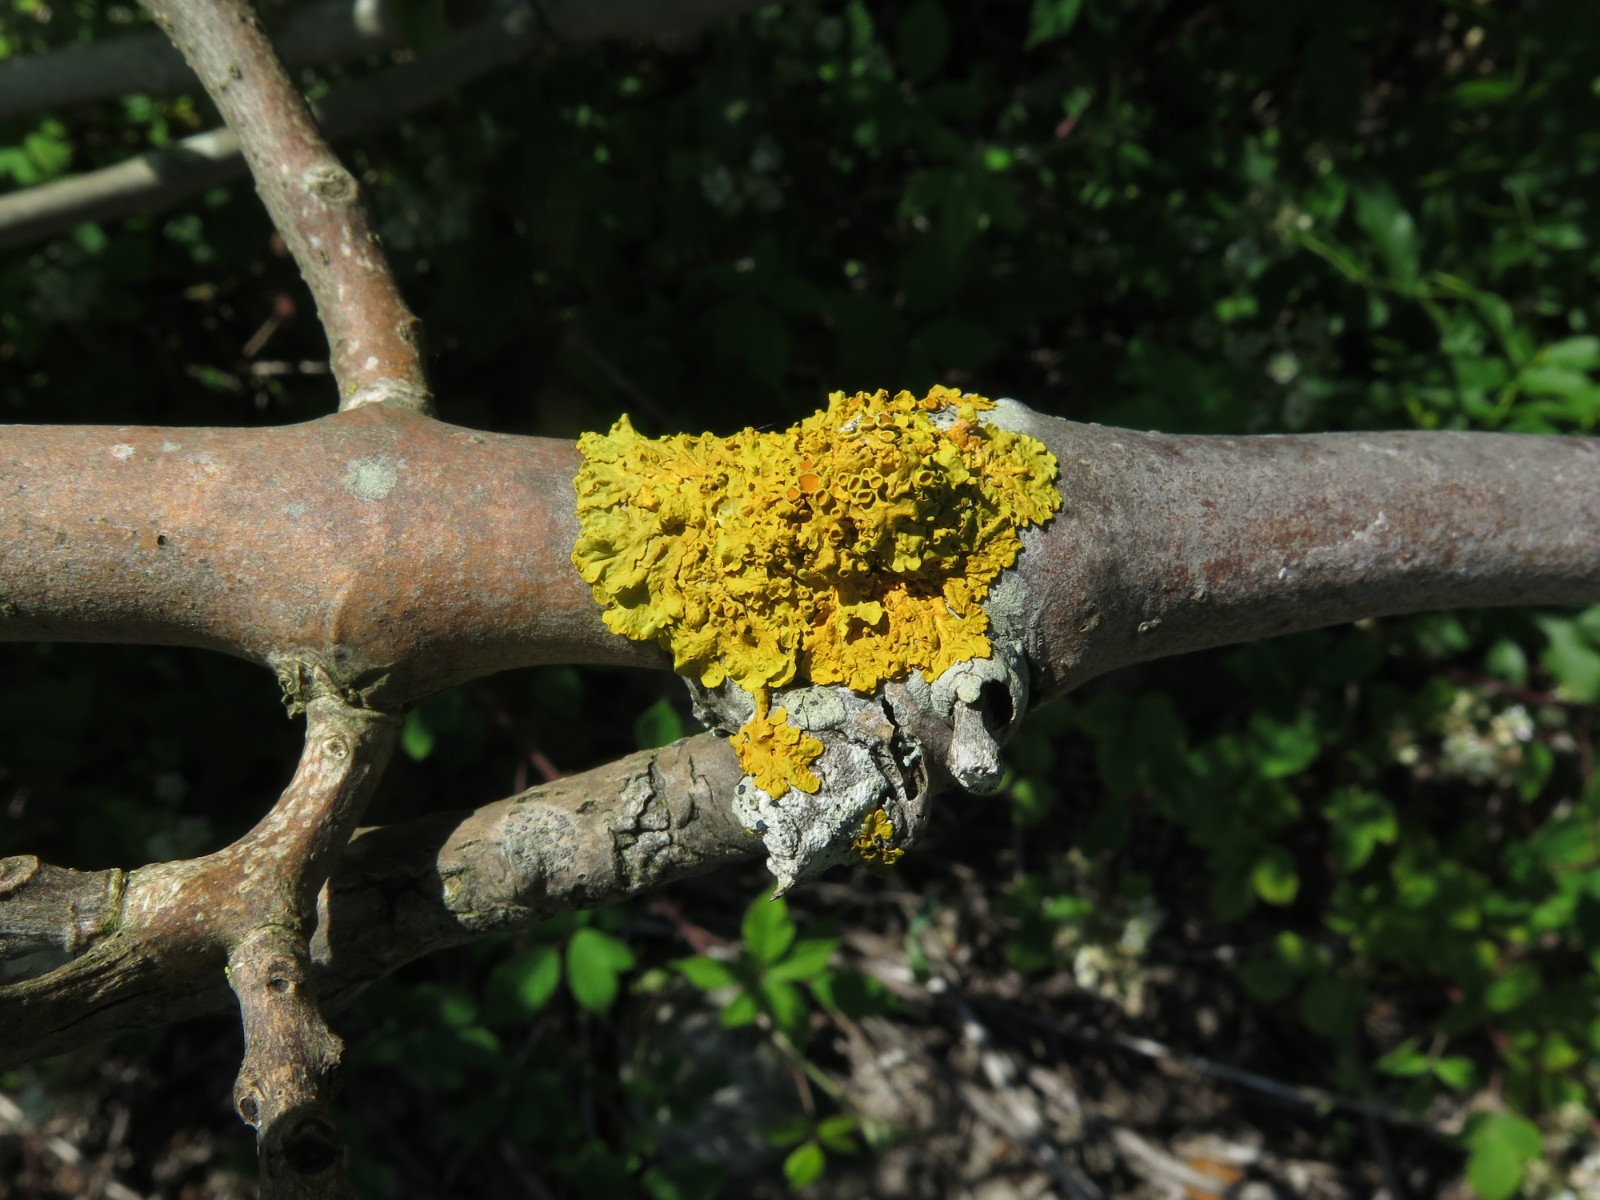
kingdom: Fungi
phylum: Ascomycota
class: Lecanoromycetes
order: Teloschistales
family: Teloschistaceae
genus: Xanthoria
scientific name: Xanthoria parietina
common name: almindelig væggelav
